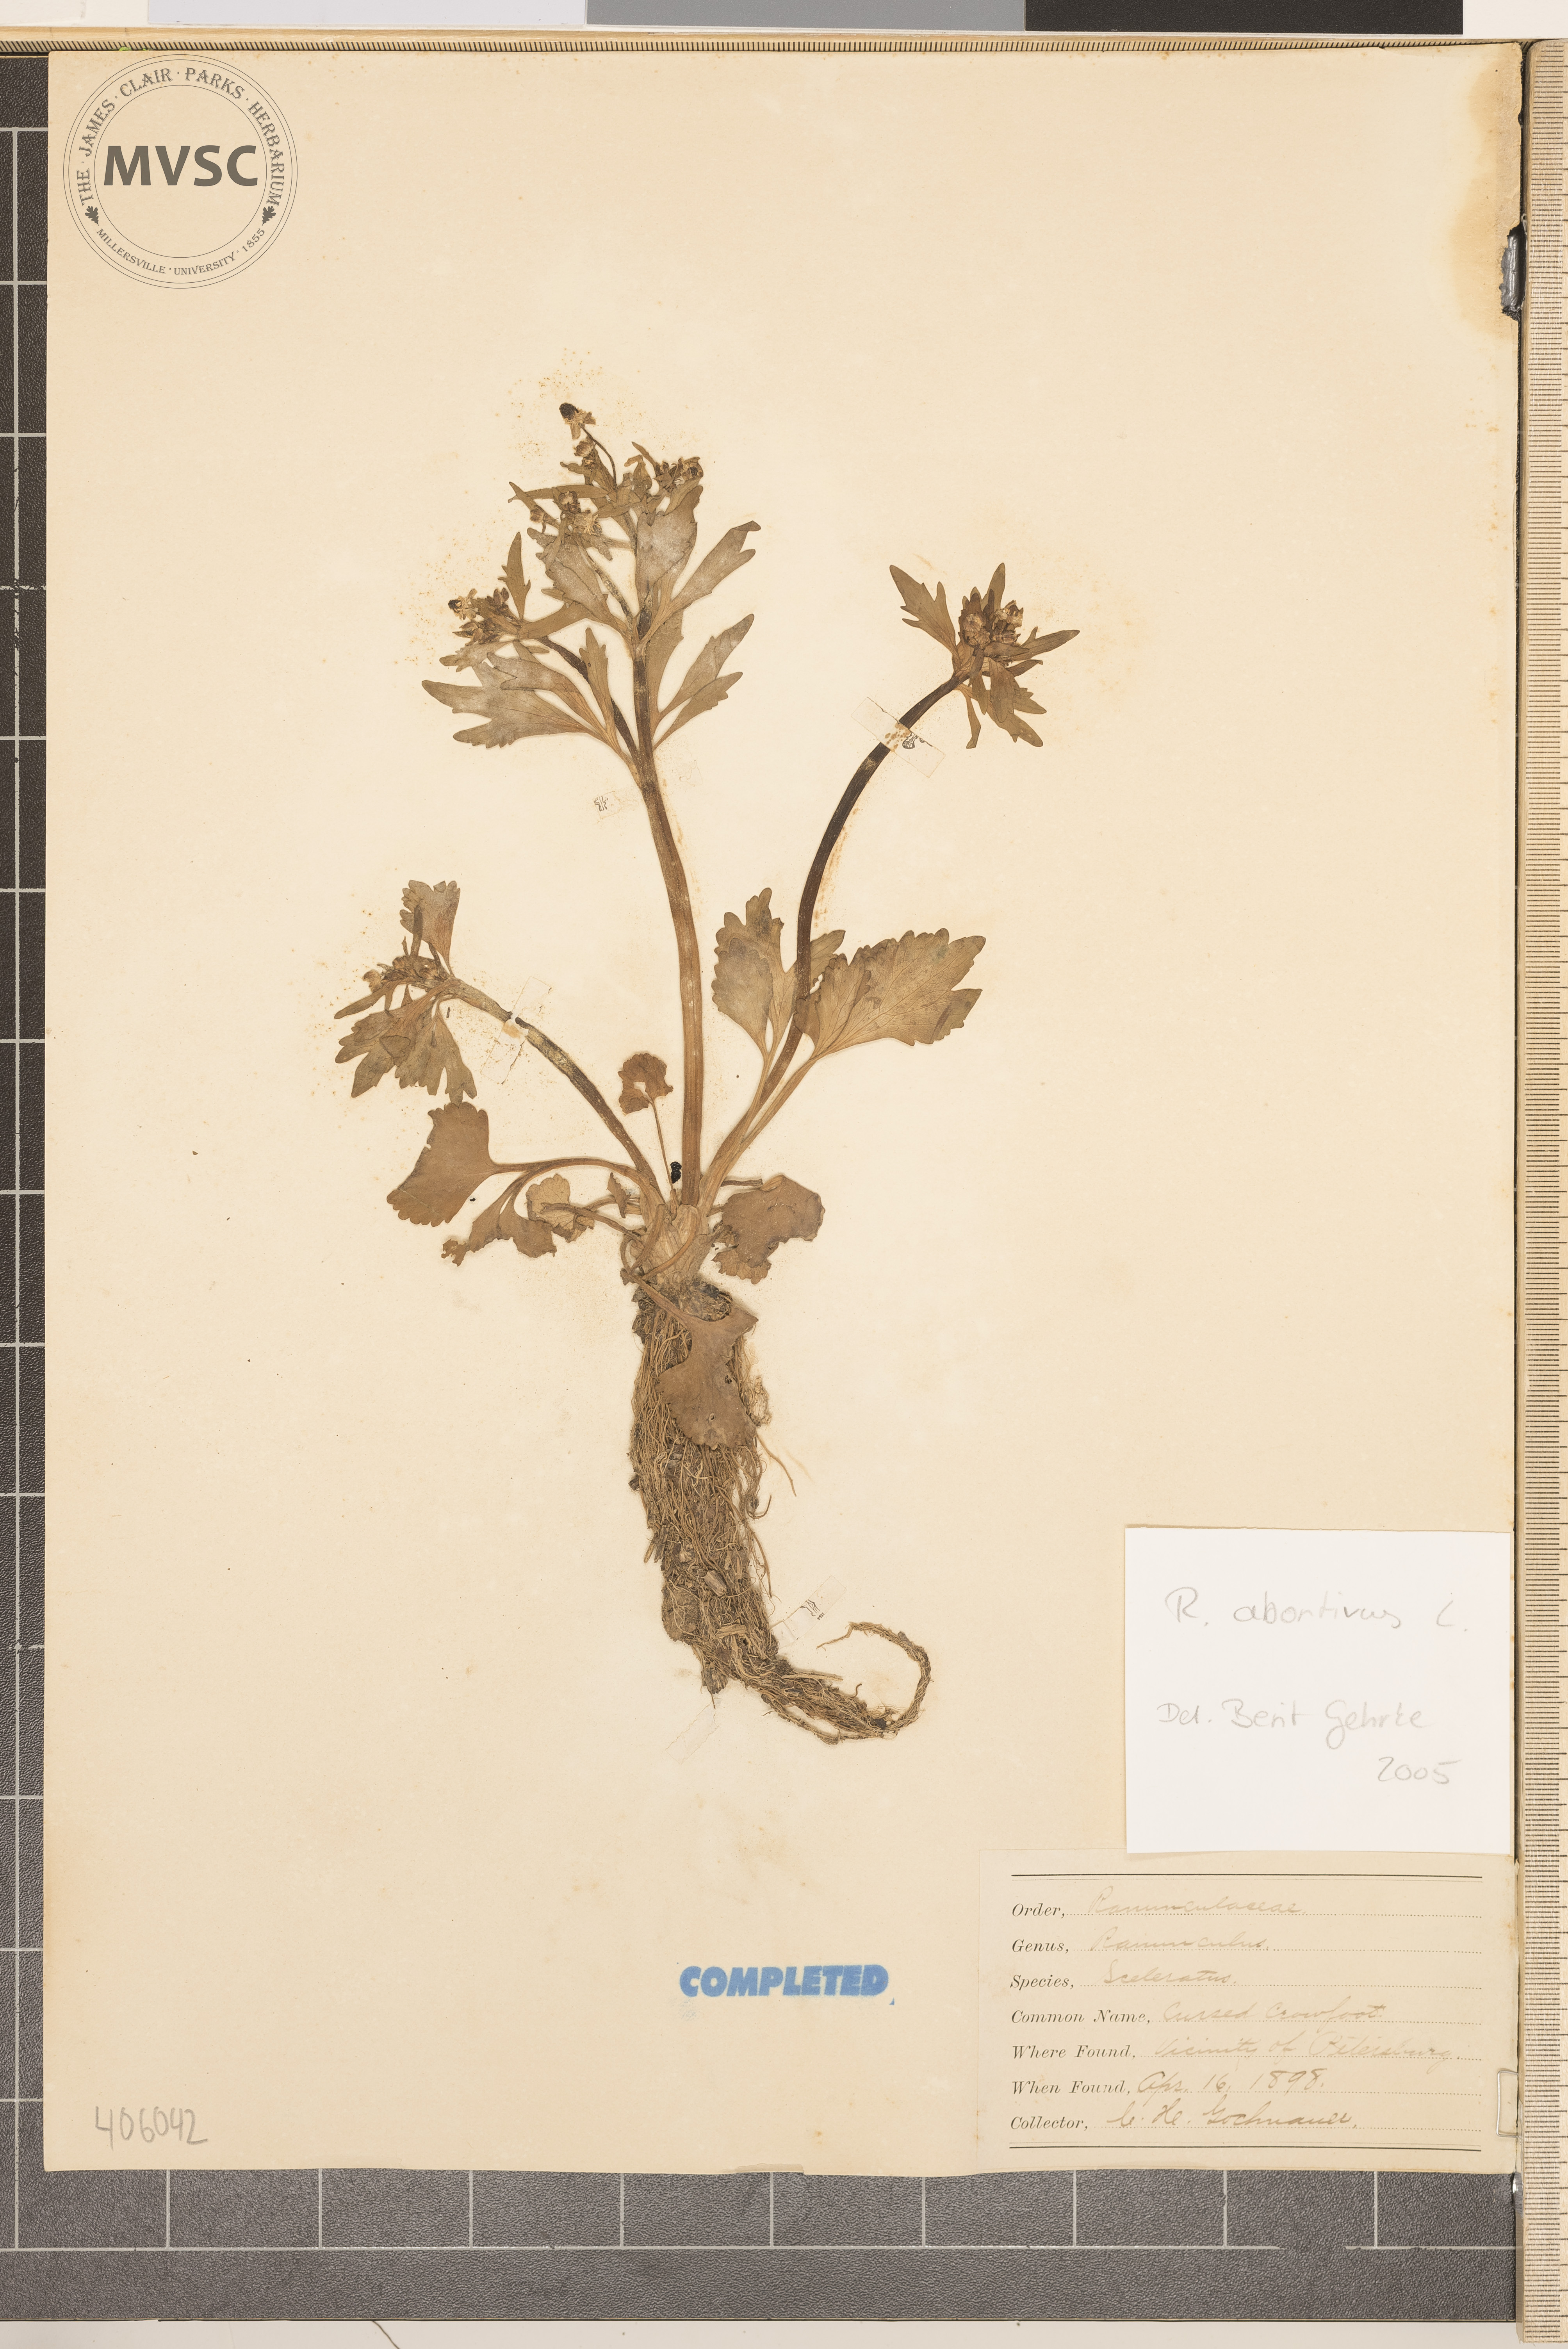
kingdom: Plantae
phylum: Tracheophyta
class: Magnoliopsida
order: Ranunculales
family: Ranunculaceae
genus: Ranunculus
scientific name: Ranunculus abortivus
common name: Early wood buttercup
